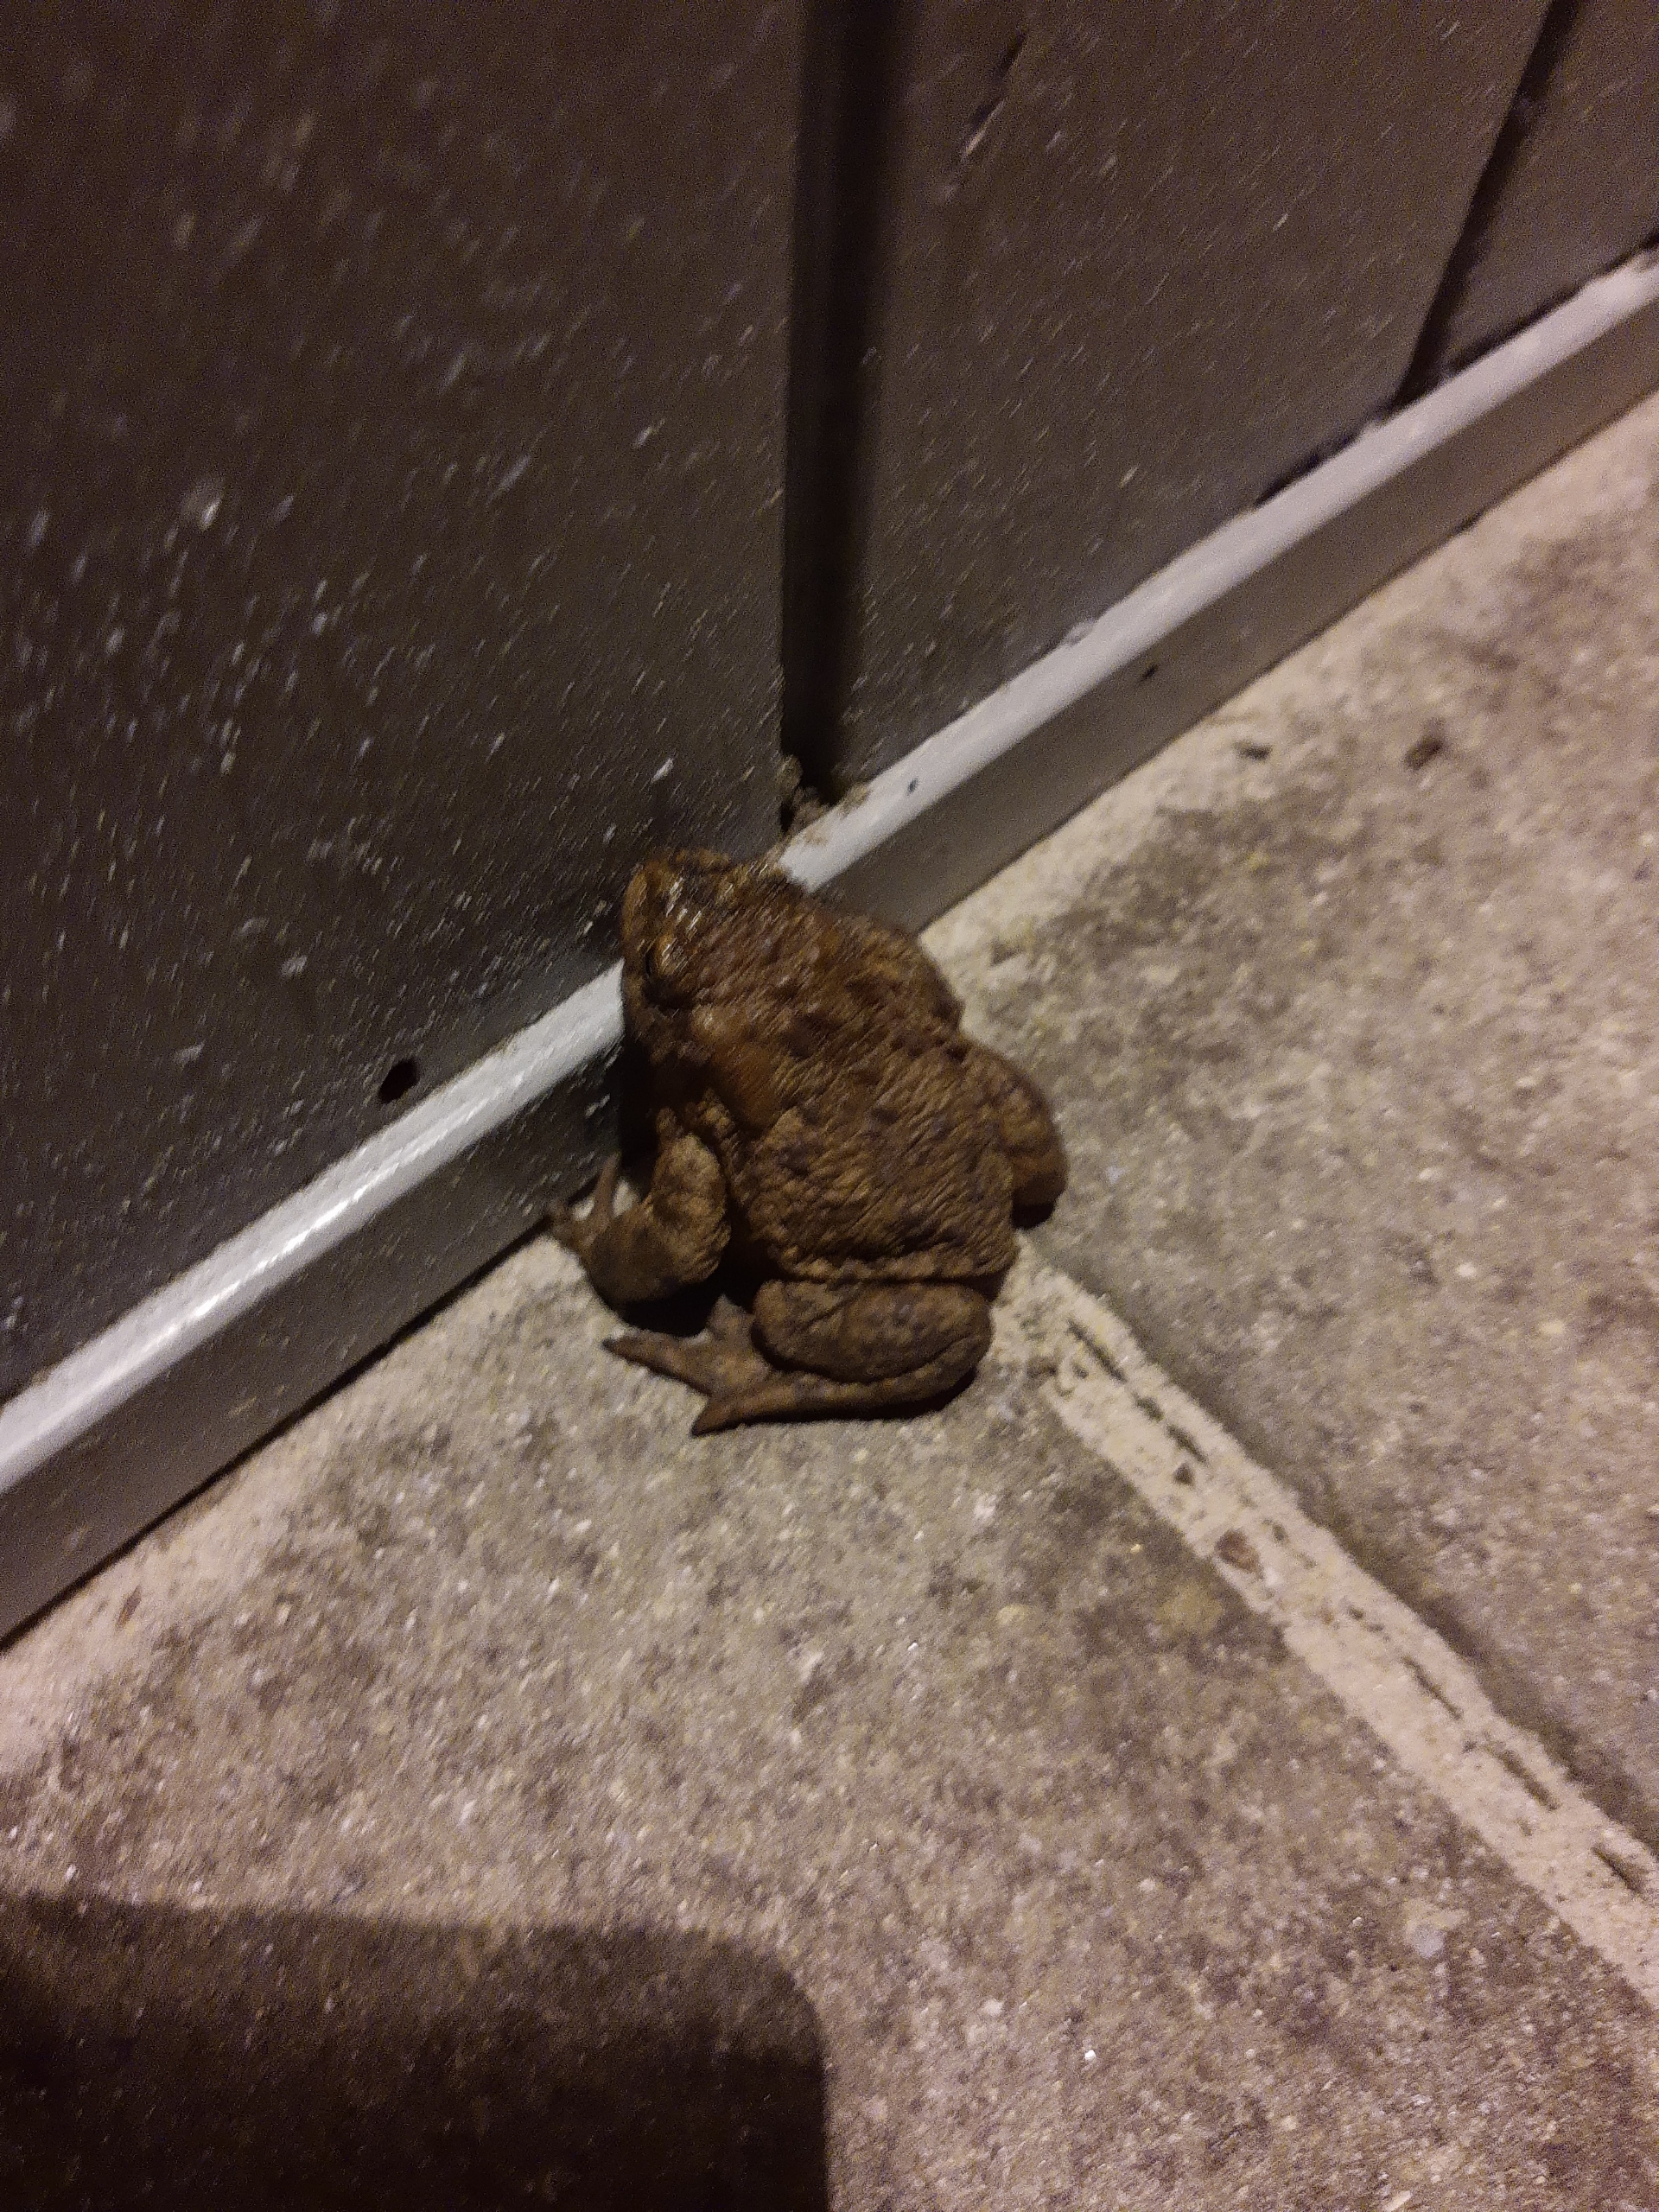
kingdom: Animalia
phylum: Chordata
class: Amphibia
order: Anura
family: Bufonidae
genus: Bufo
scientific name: Bufo bufo
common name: Skrubtudse
